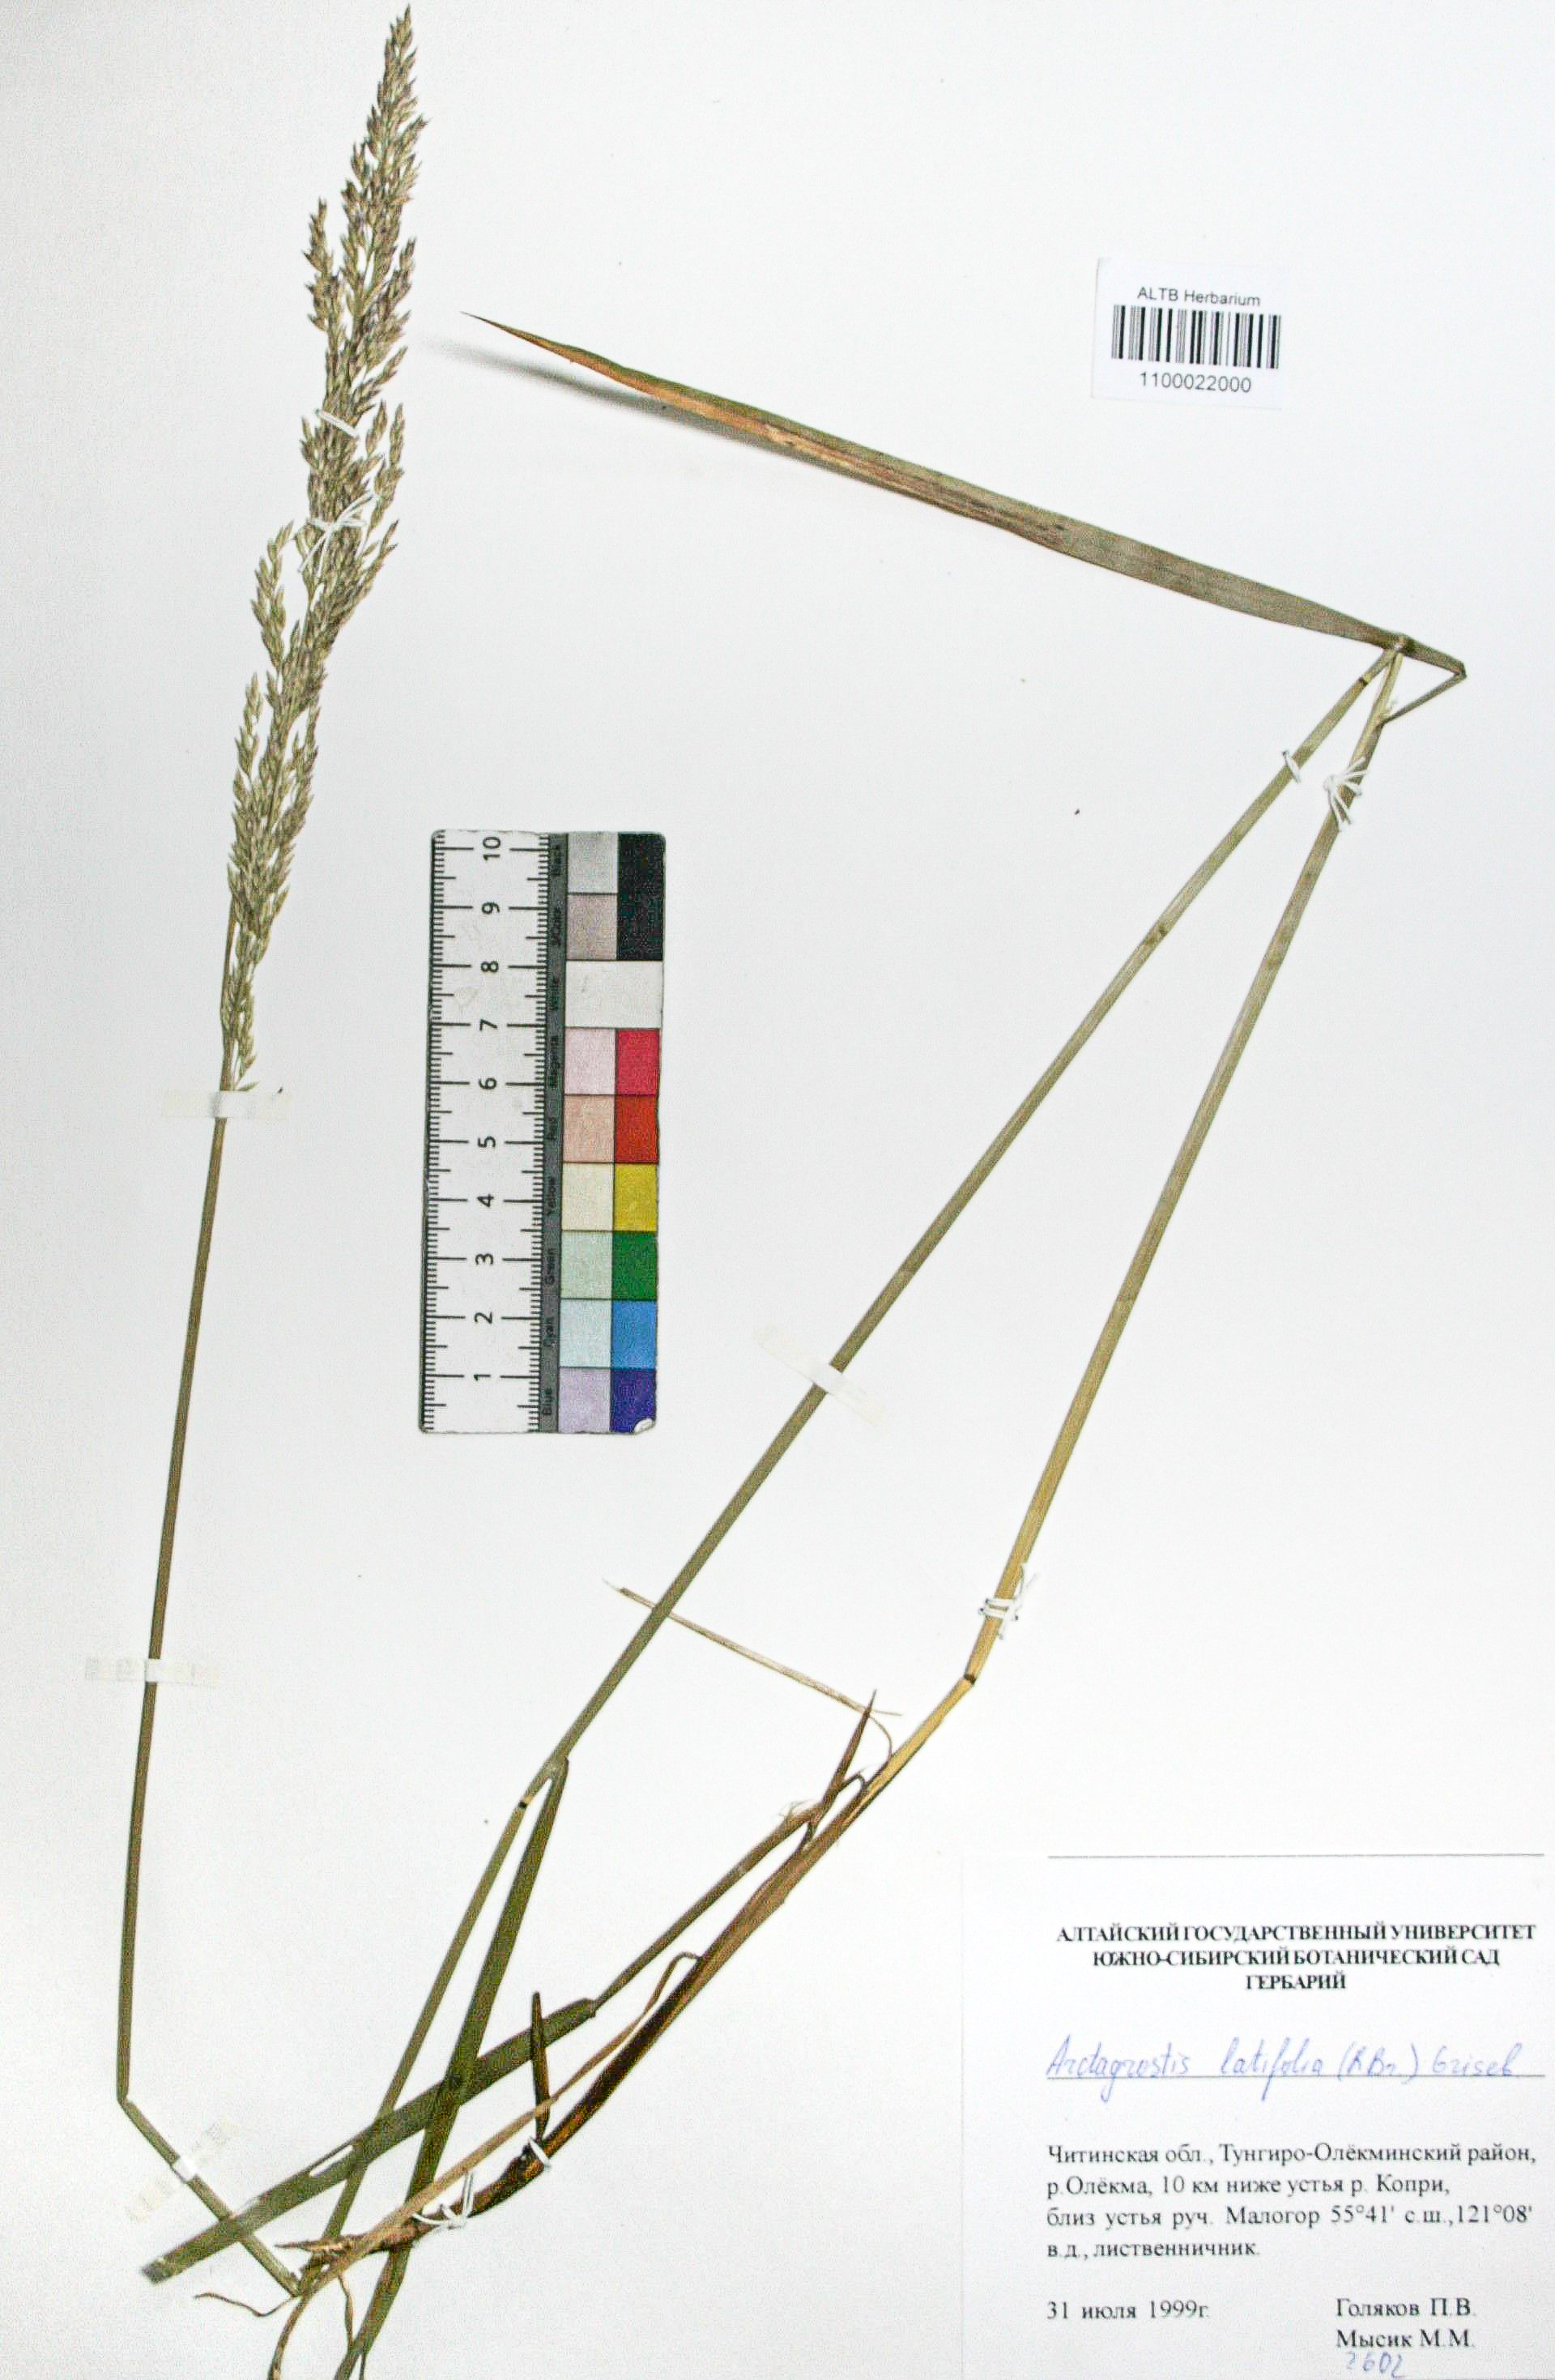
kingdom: Plantae
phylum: Tracheophyta
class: Liliopsida
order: Poales
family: Poaceae
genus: Arctagrostis
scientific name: Arctagrostis latifolia
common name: Arctic grass
